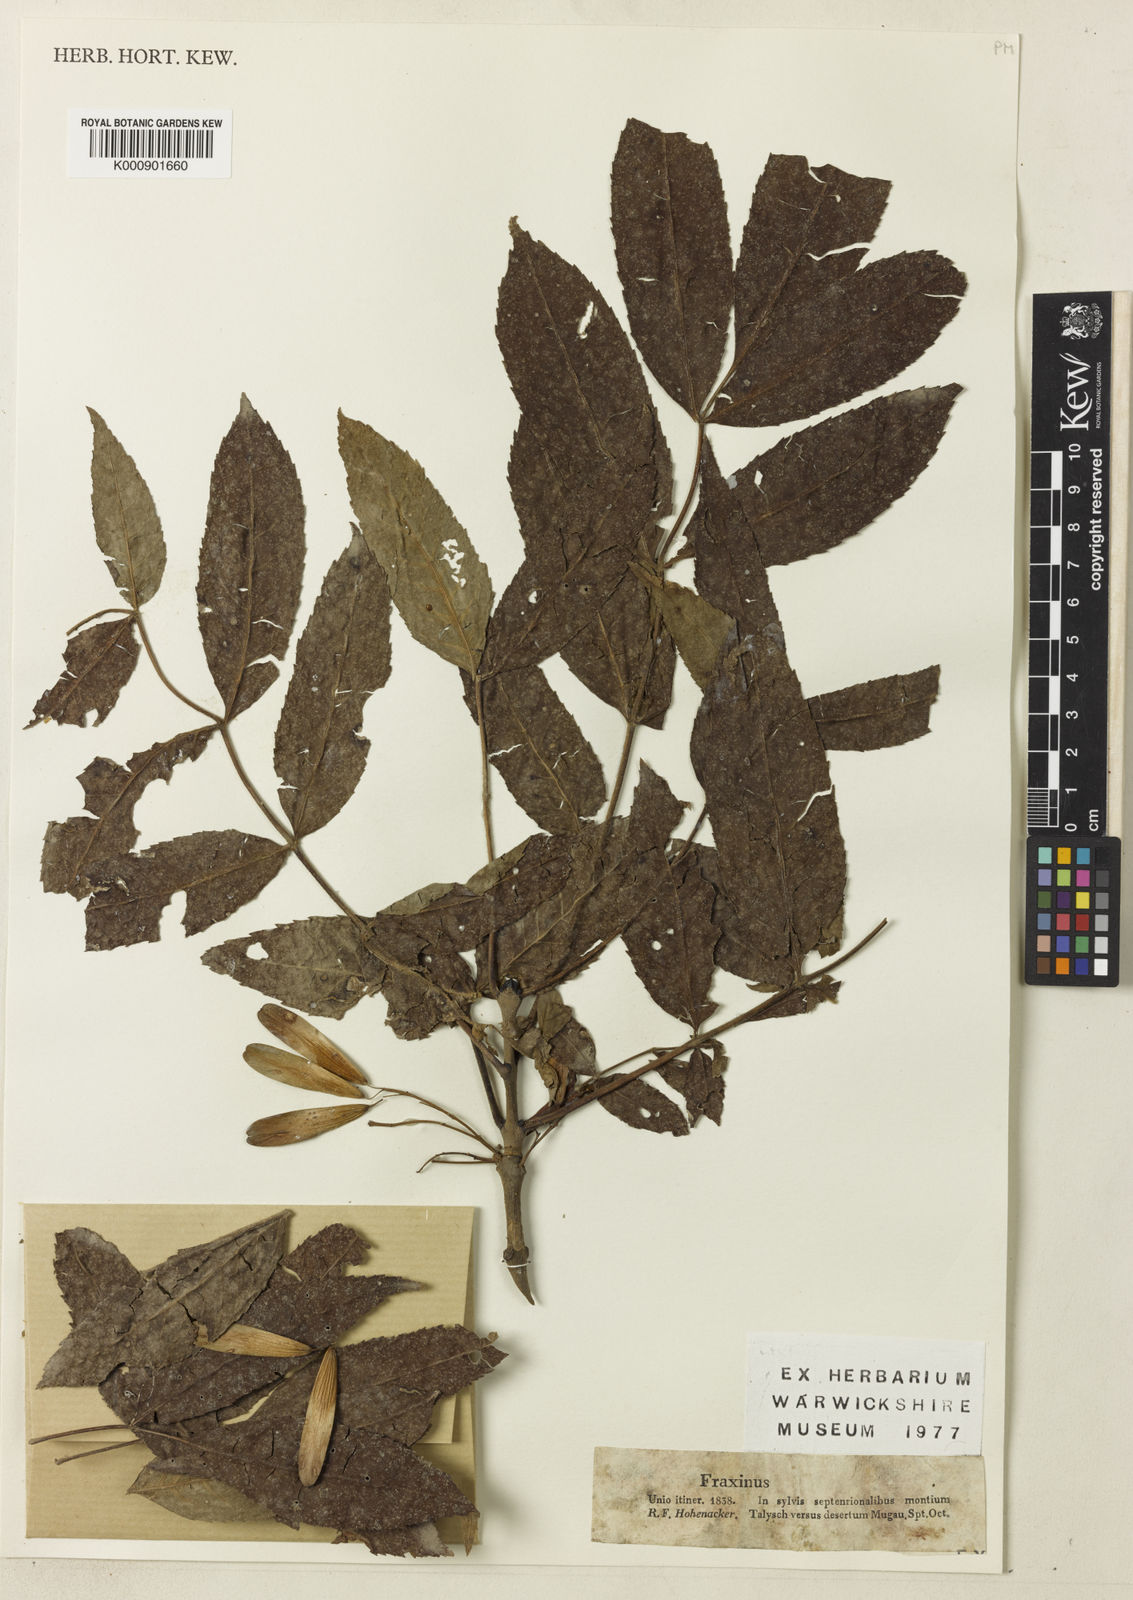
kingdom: Plantae
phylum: Tracheophyta
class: Magnoliopsida
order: Lamiales
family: Oleaceae
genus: Fraxinus
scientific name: Fraxinus excelsior
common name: European ash
